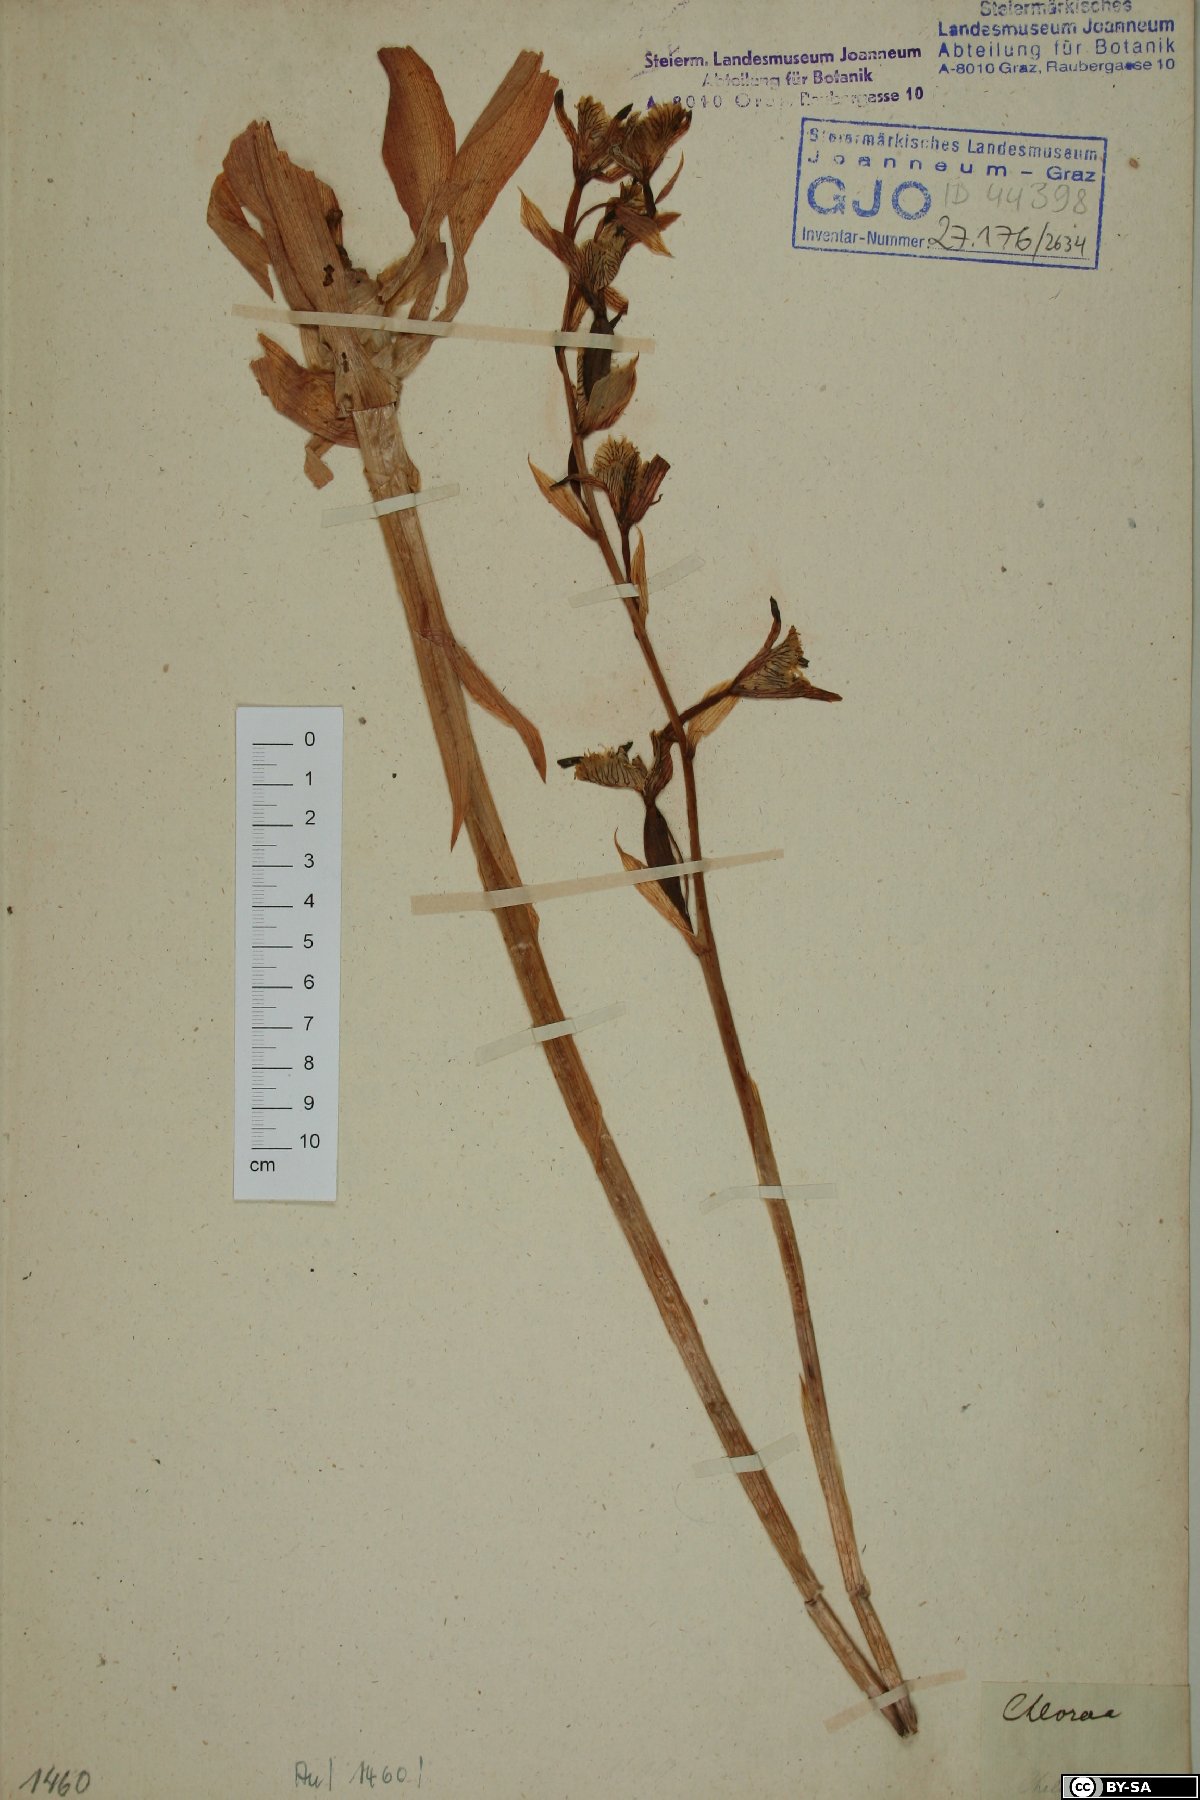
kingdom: Plantae
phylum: Tracheophyta
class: Liliopsida
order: Asparagales
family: Orchidaceae
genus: Chloraea
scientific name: Chloraea
